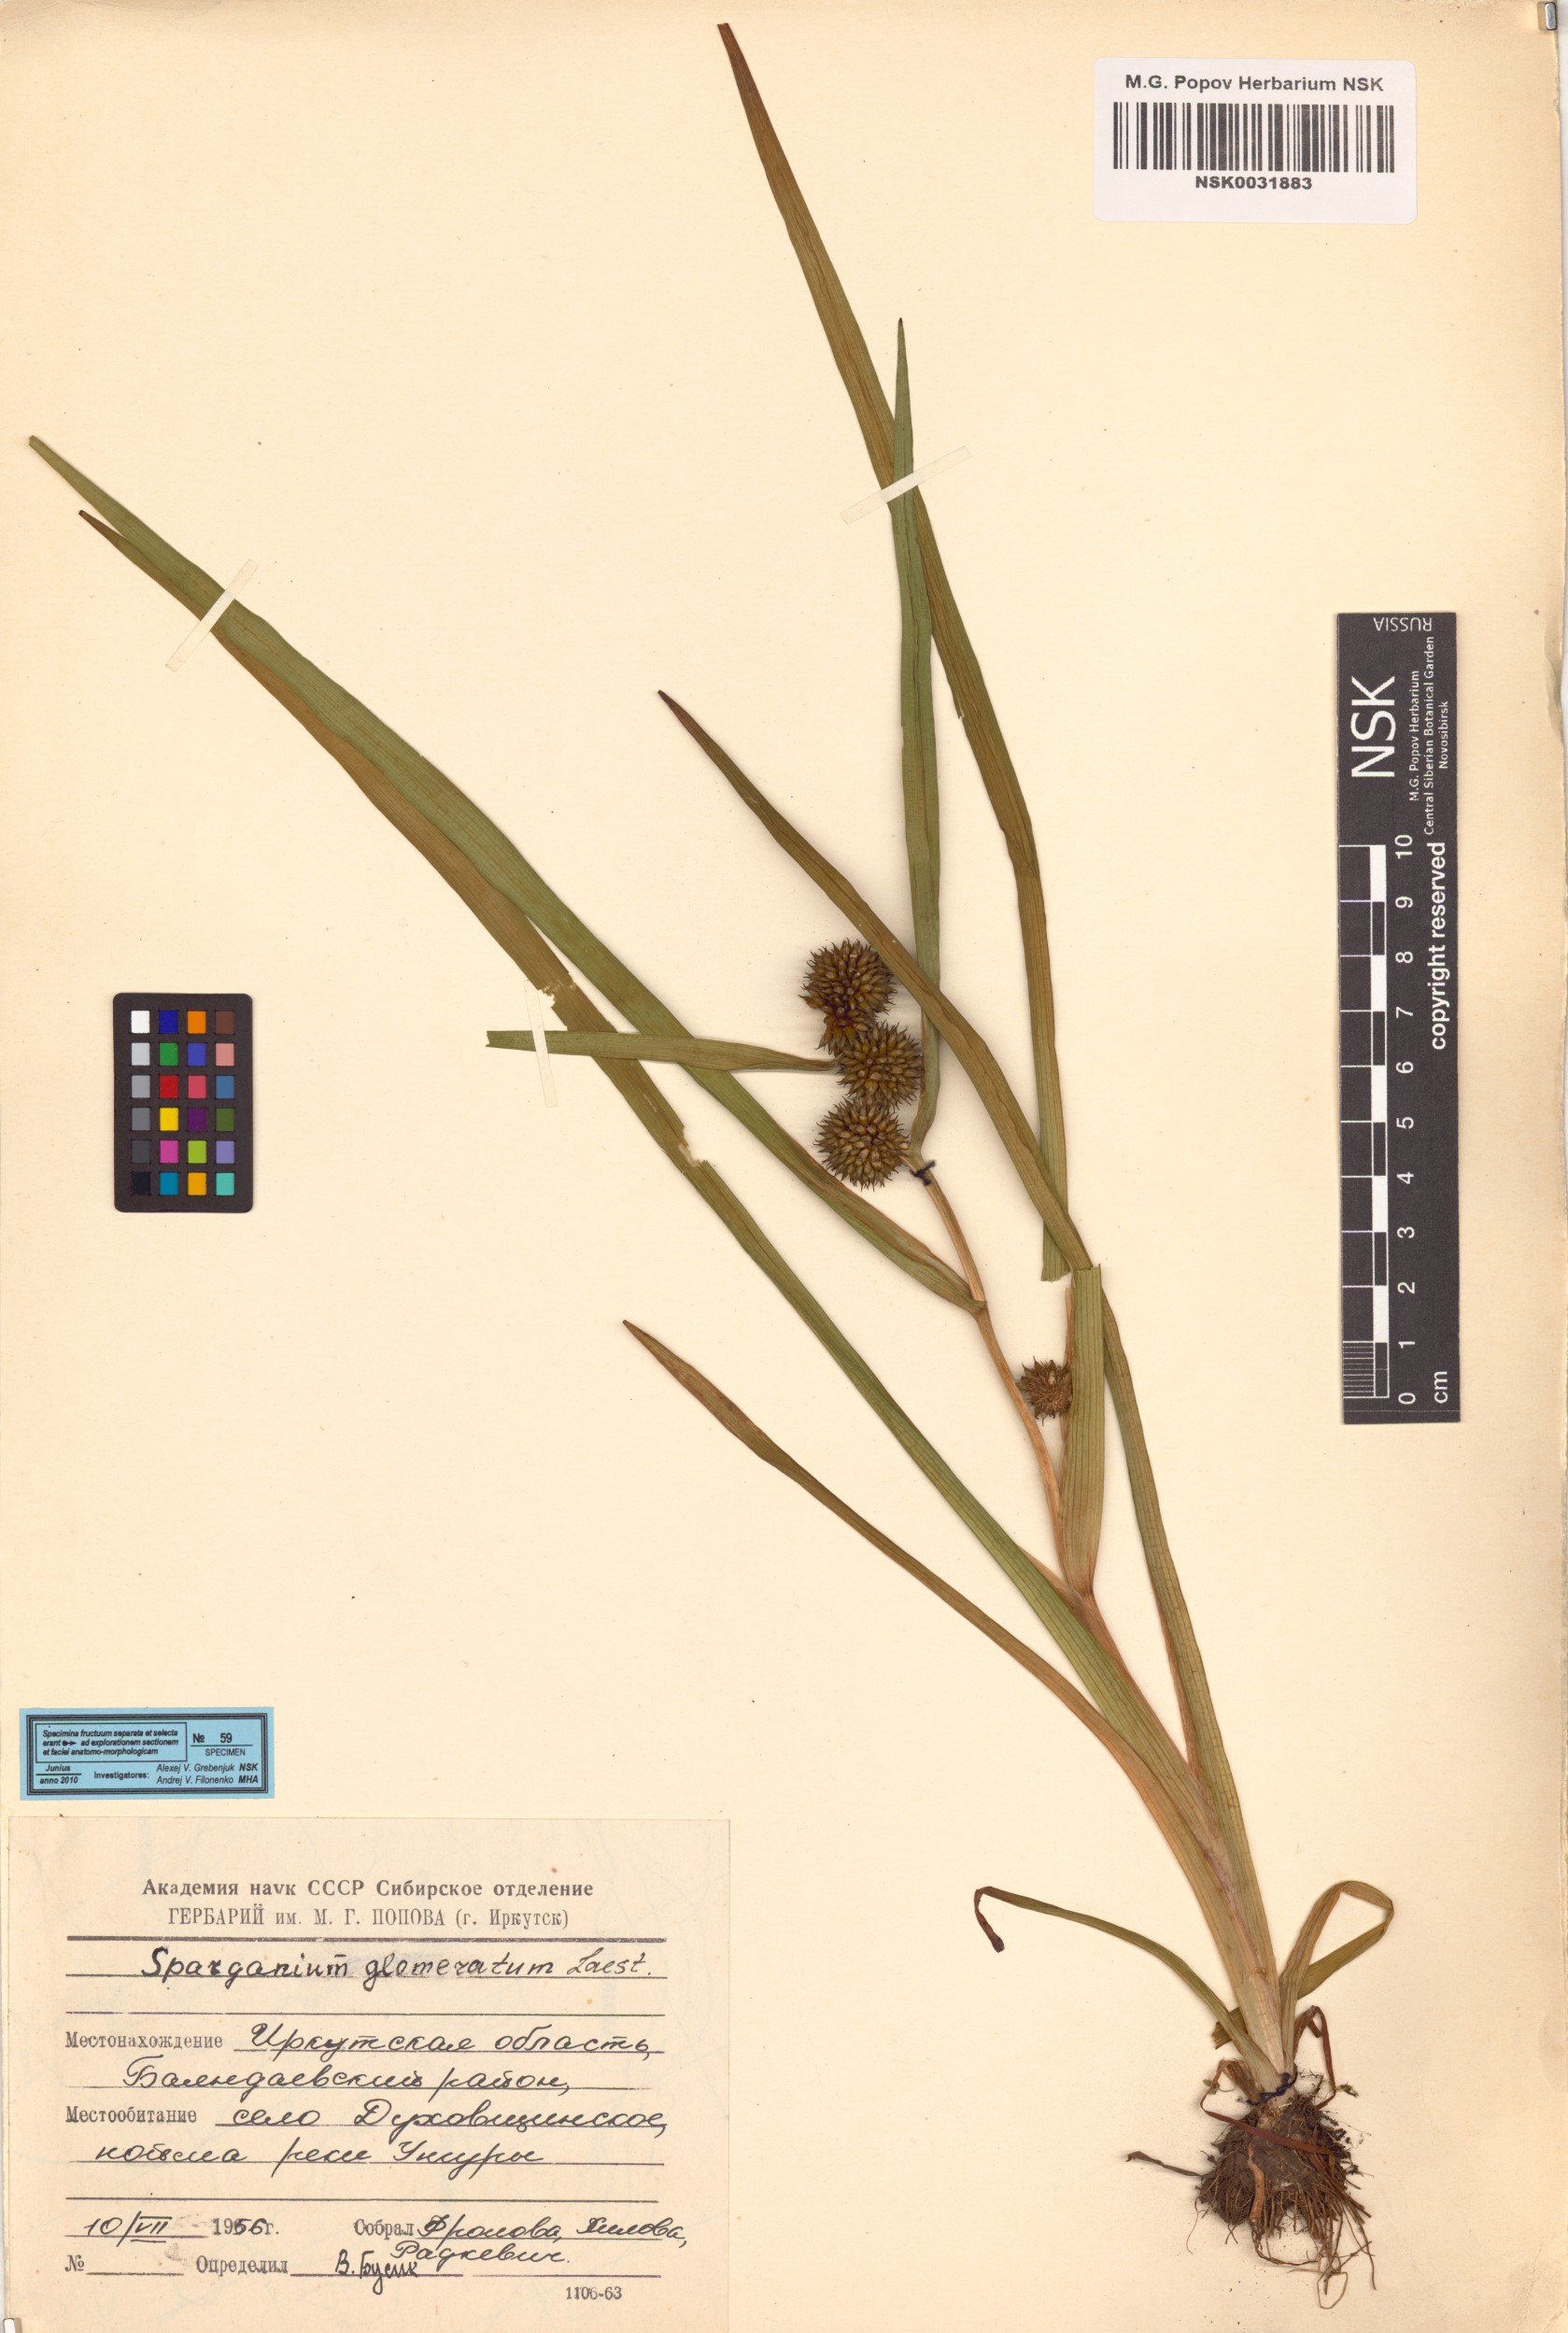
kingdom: Plantae
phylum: Tracheophyta
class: Liliopsida
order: Poales
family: Typhaceae
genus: Sparganium
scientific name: Sparganium glomeratum
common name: Clustered burreed
